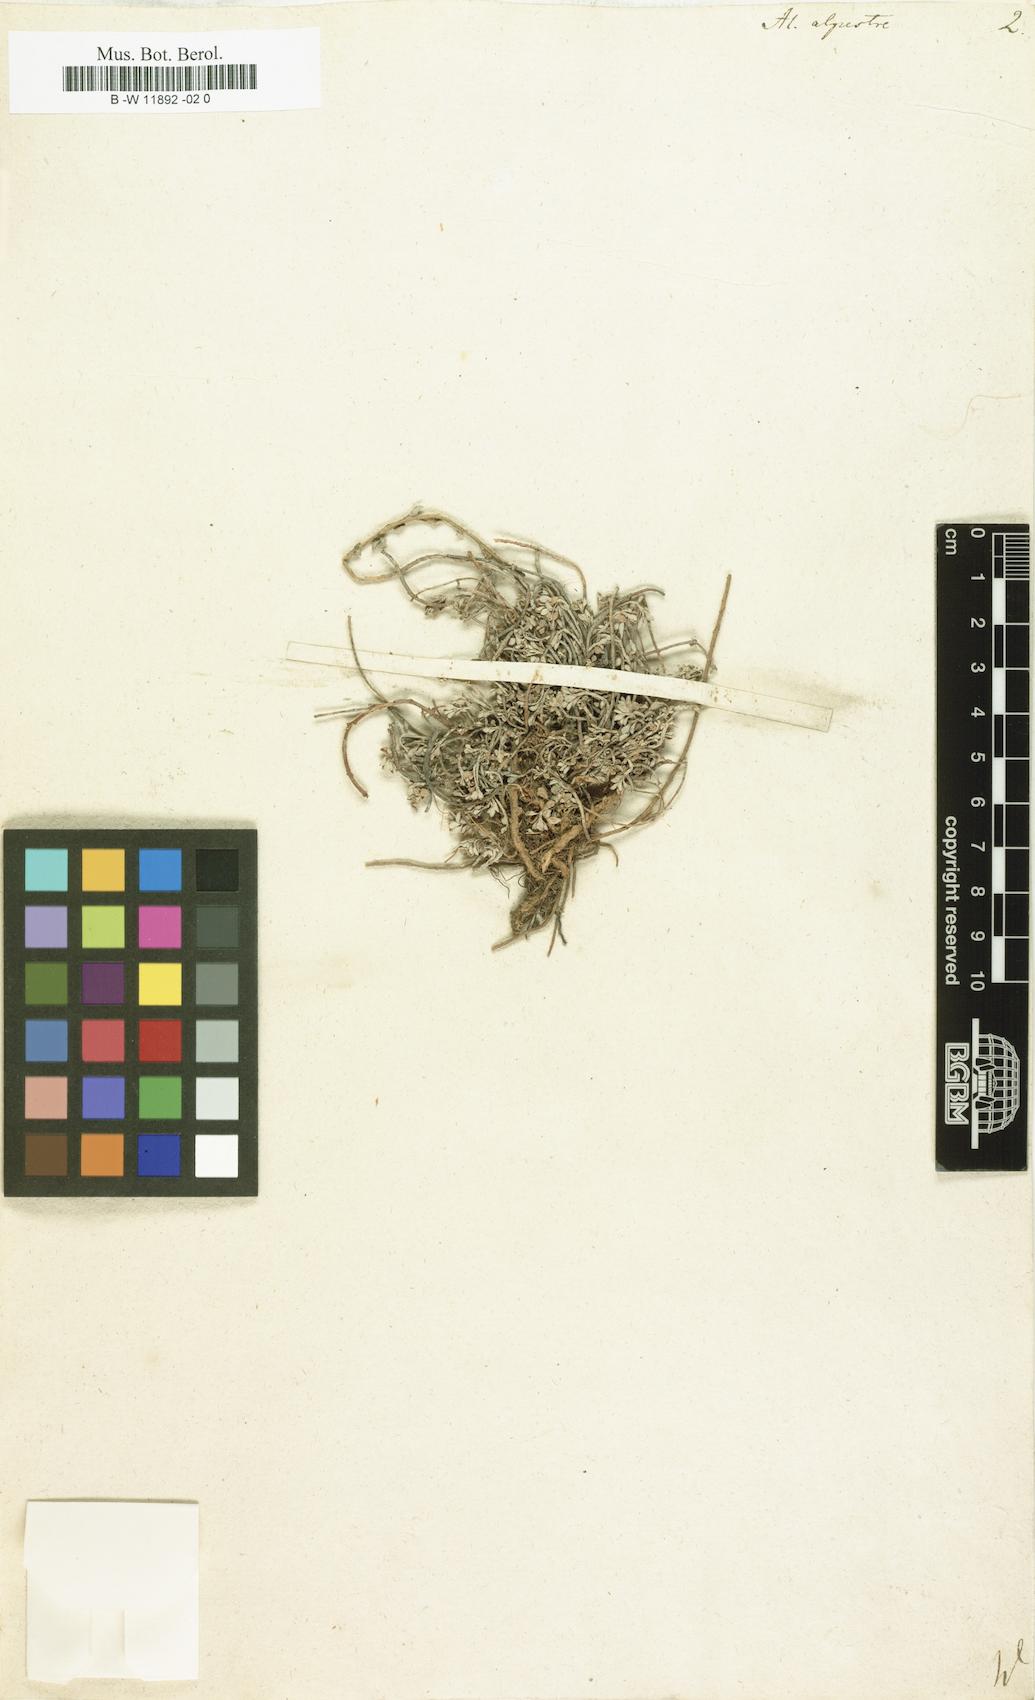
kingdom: Plantae
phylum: Tracheophyta
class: Magnoliopsida
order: Brassicales
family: Brassicaceae
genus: Odontarrhena
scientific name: Odontarrhena alpestris
